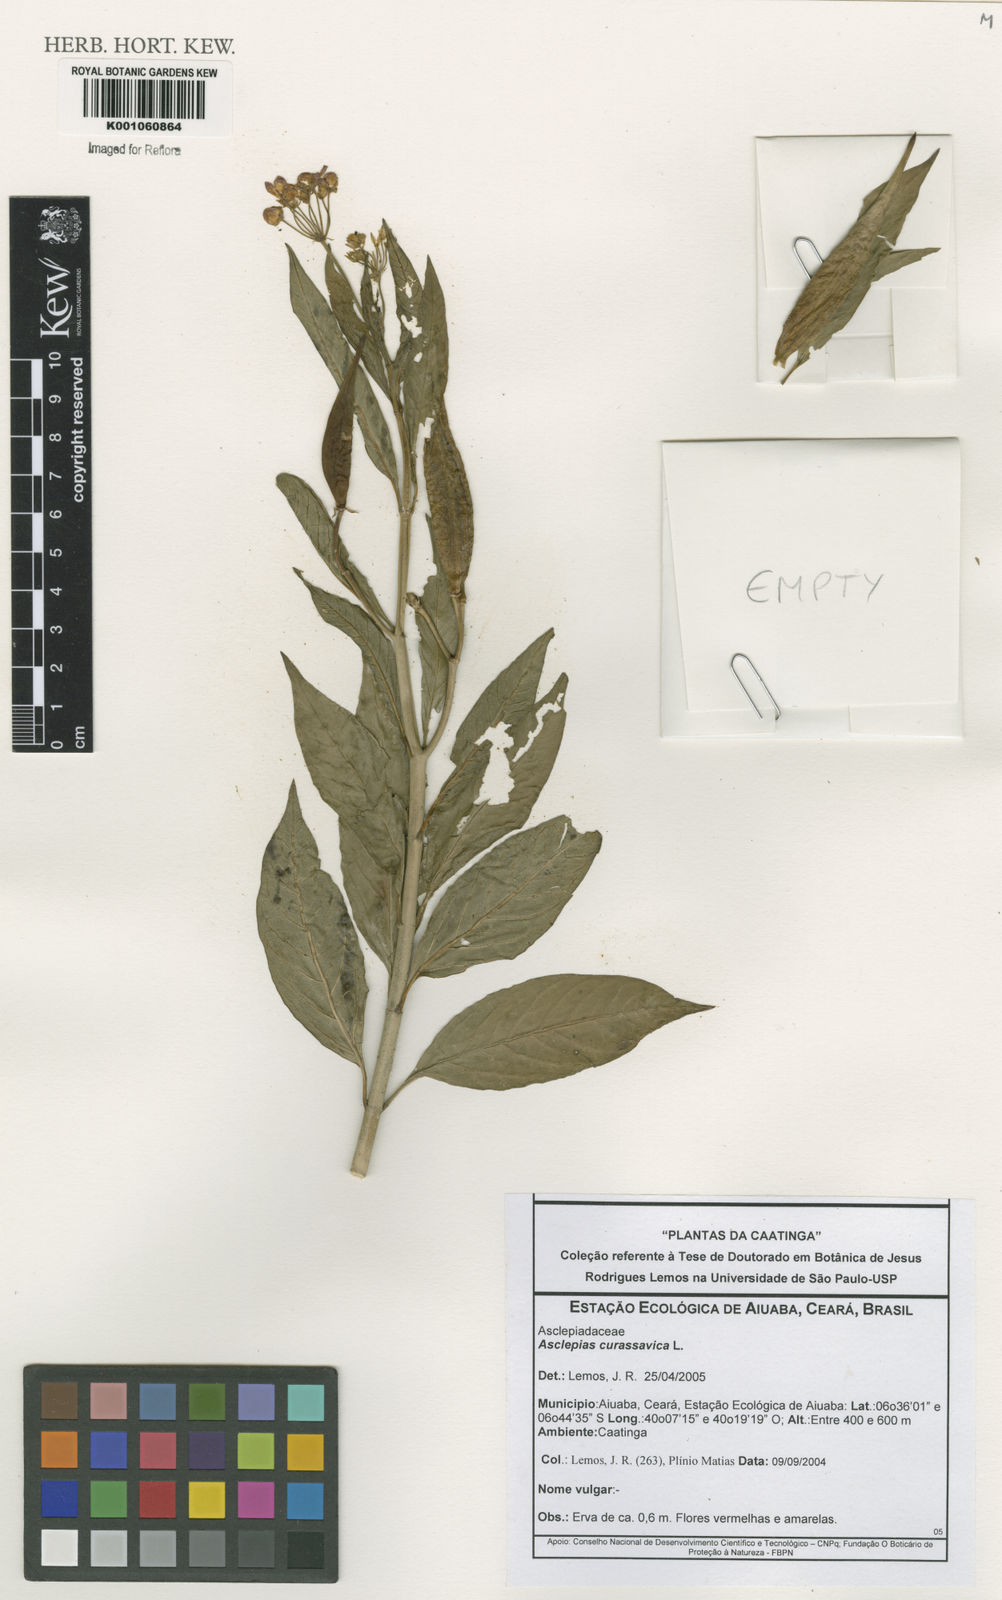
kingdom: Plantae
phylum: Tracheophyta
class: Magnoliopsida
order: Gentianales
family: Apocynaceae
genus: Asclepias
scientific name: Asclepias curassavica
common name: Bloodflower
